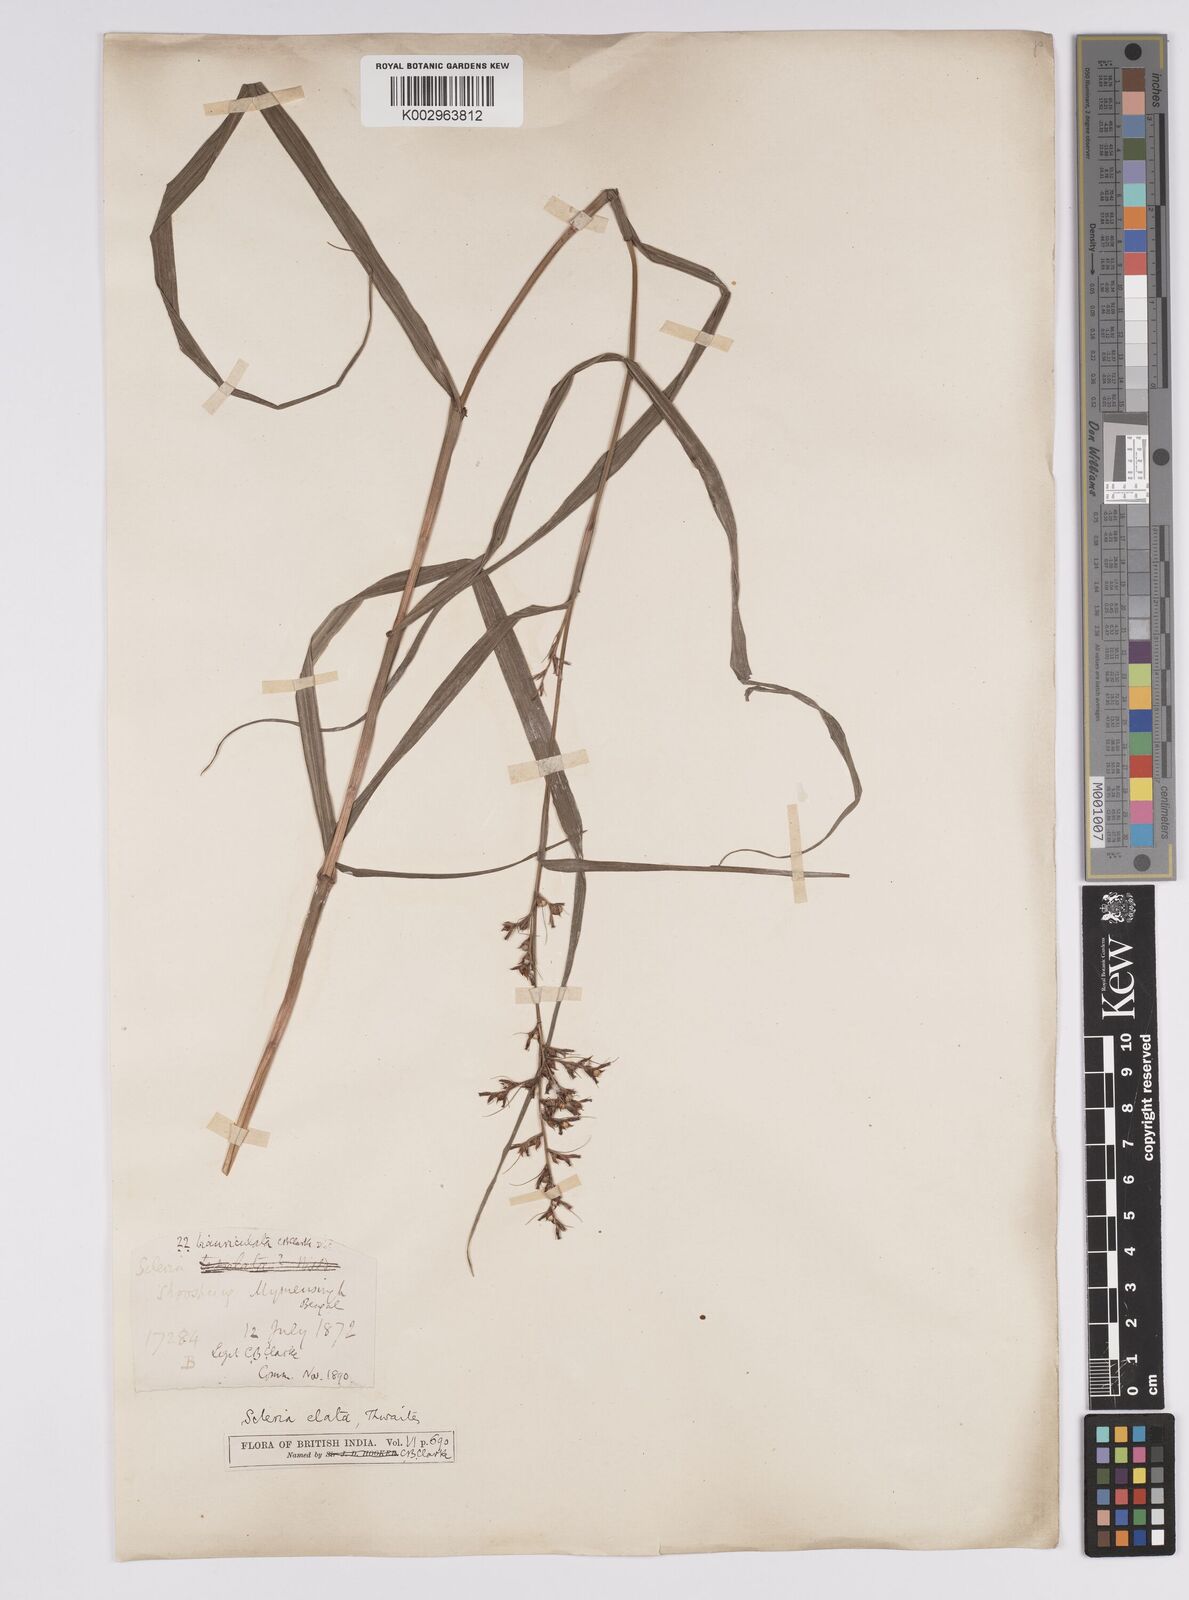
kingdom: Plantae
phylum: Tracheophyta
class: Liliopsida
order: Poales
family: Cyperaceae
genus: Scleria
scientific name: Scleria terrestris
